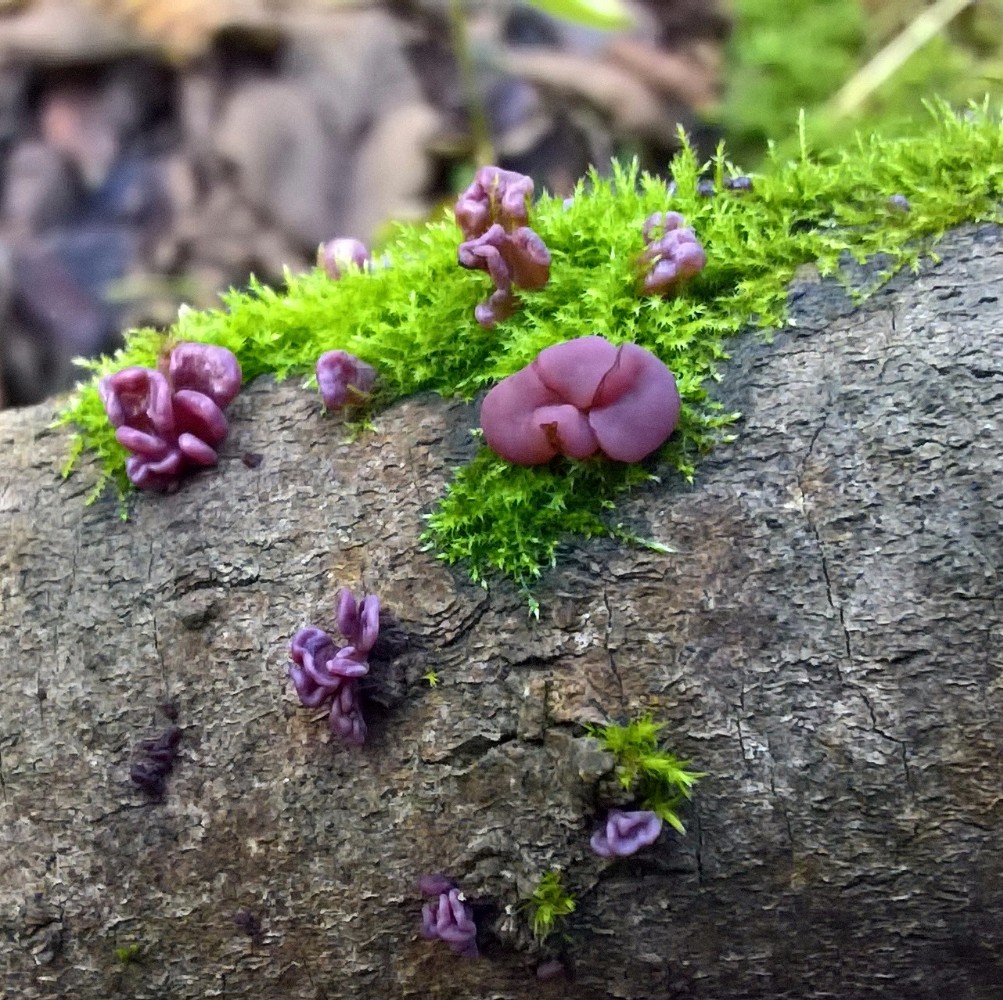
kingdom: Fungi
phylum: Ascomycota
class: Leotiomycetes
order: Helotiales
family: Gelatinodiscaceae
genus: Ascocoryne
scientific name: Ascocoryne sarcoides
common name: rødlilla sejskive
